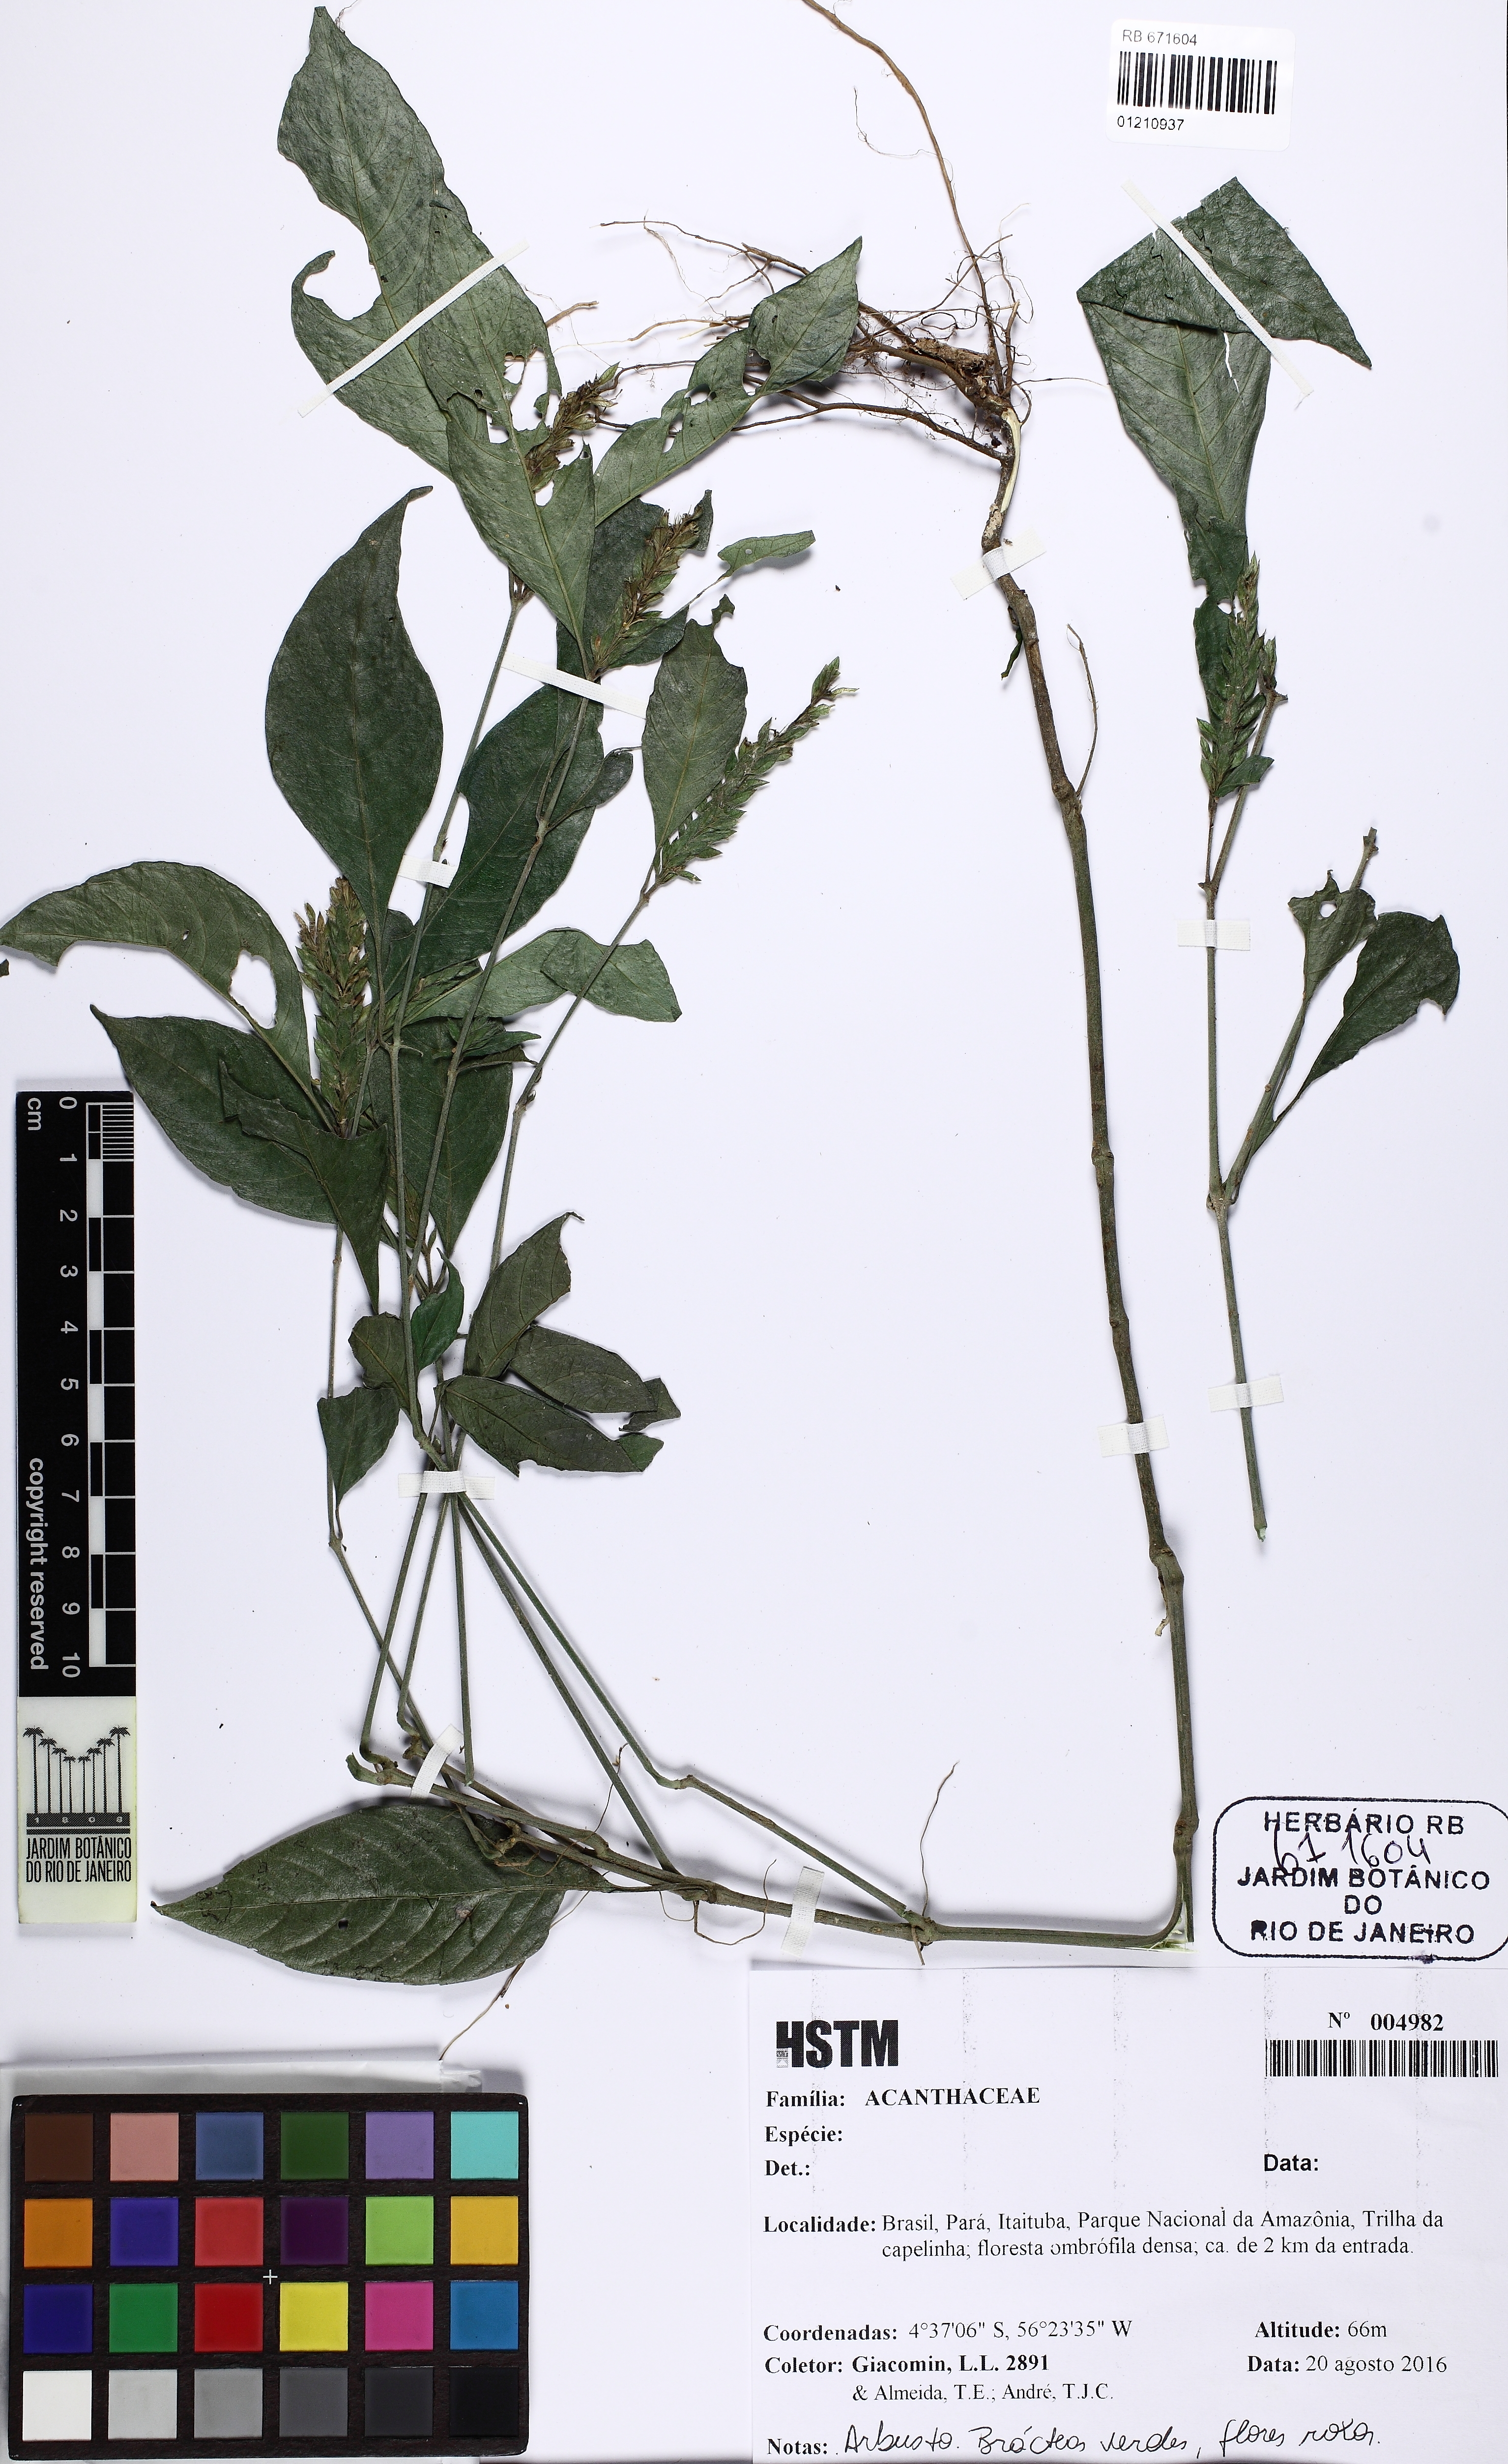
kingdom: Plantae
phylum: Tracheophyta
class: Magnoliopsida
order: Lamiales
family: Acanthaceae
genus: Justicia
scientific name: Justicia potamogeton
